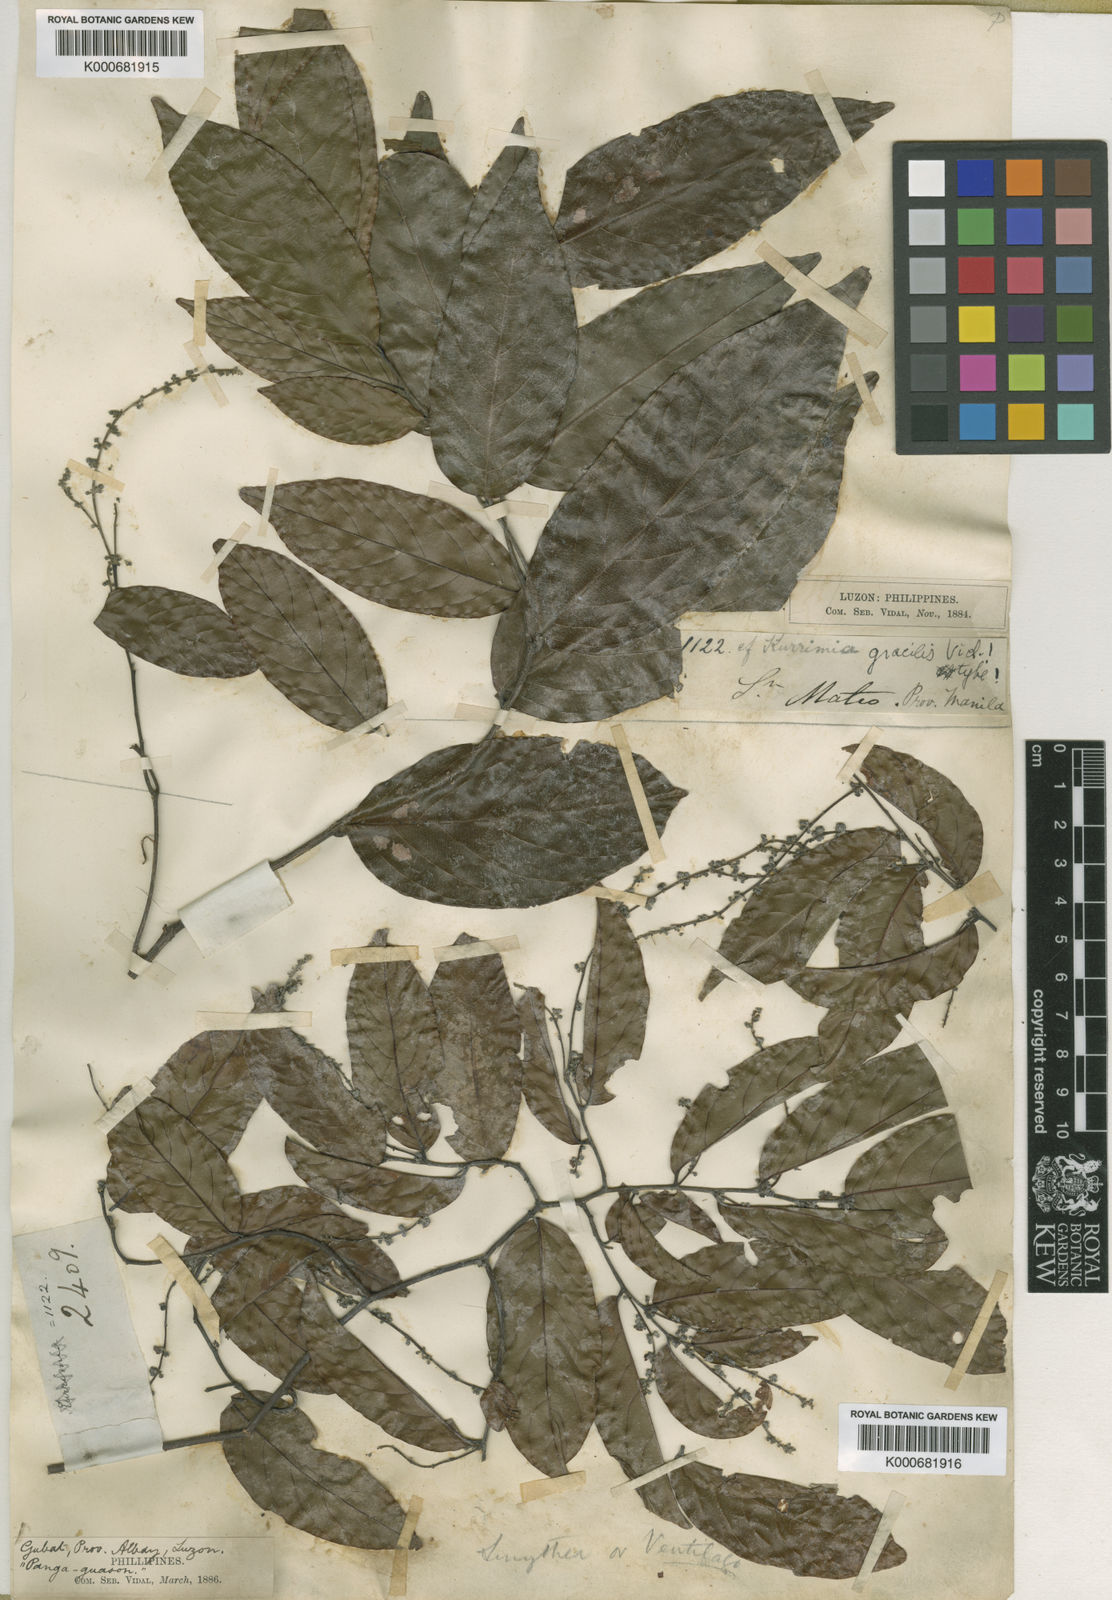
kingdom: Plantae
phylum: Tracheophyta
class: Magnoliopsida
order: Rosales
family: Rhamnaceae
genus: Ventilago
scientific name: Ventilago dichotoma
